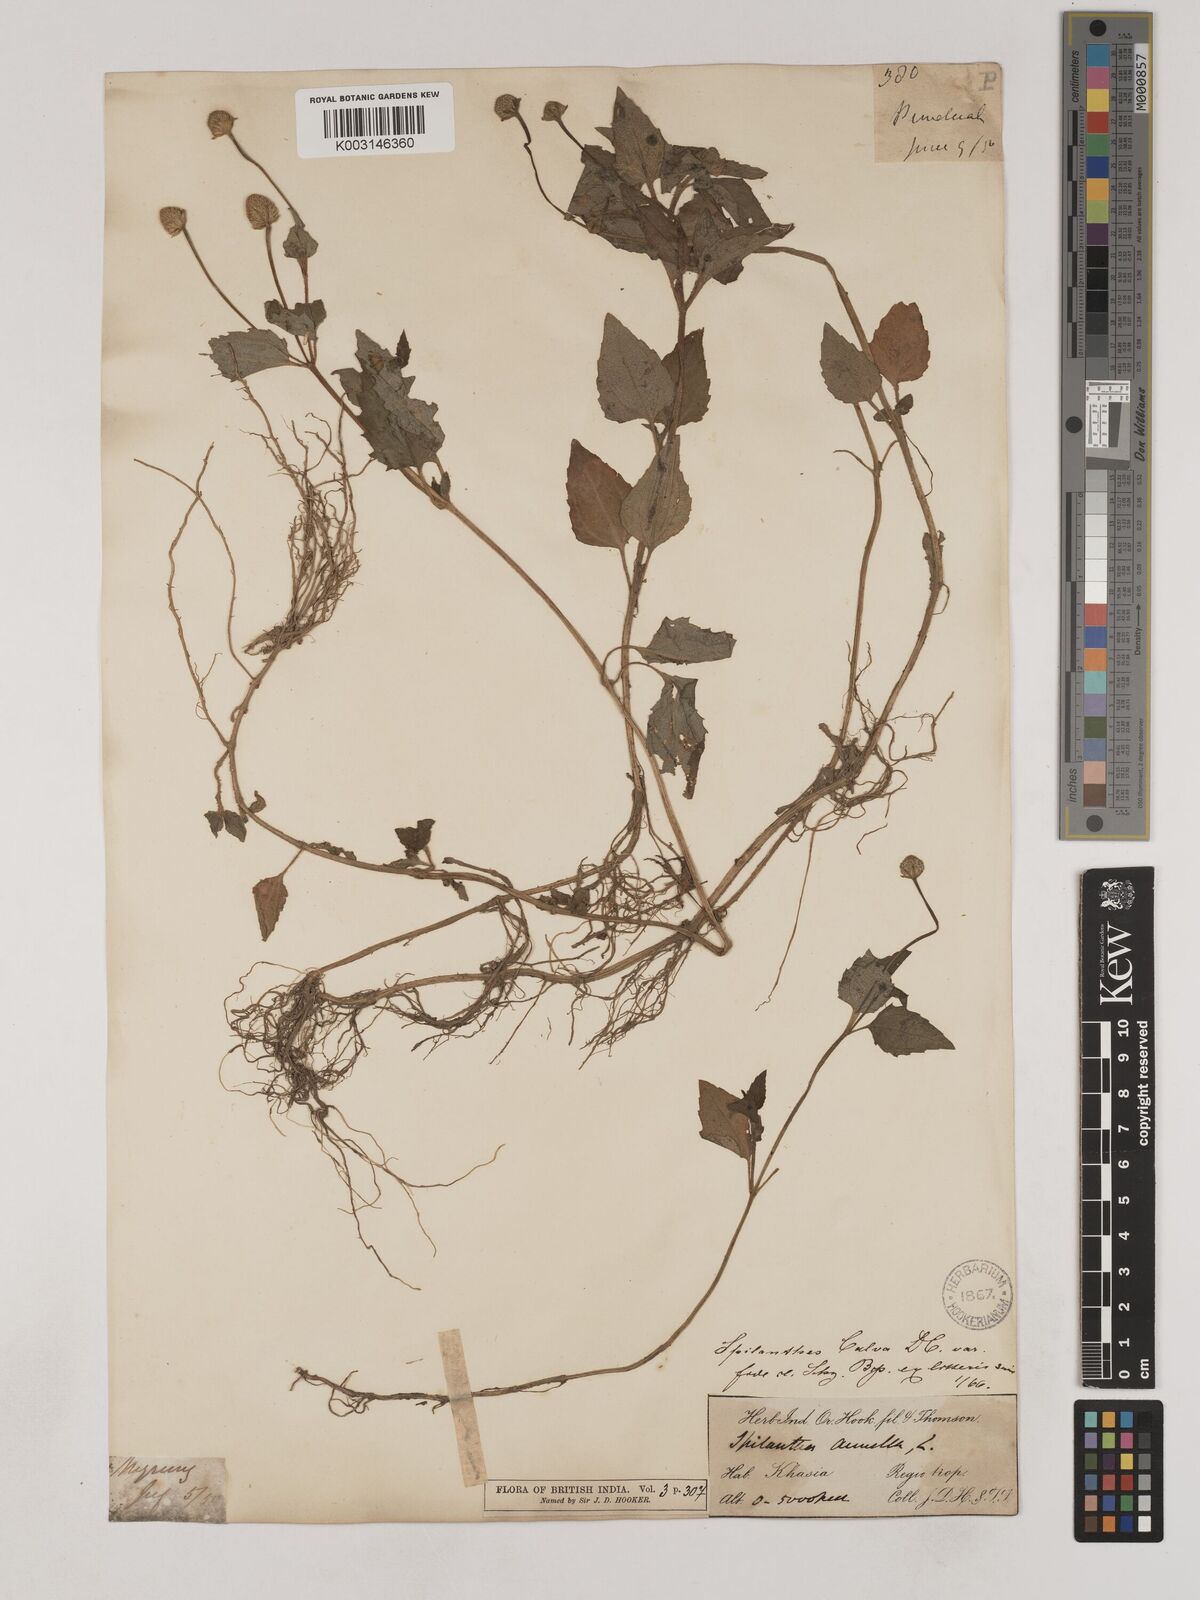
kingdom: Plantae
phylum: Tracheophyta
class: Magnoliopsida
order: Asterales
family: Asteraceae
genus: Acmella
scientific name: Acmella paniculata
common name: Panicled spot flower
